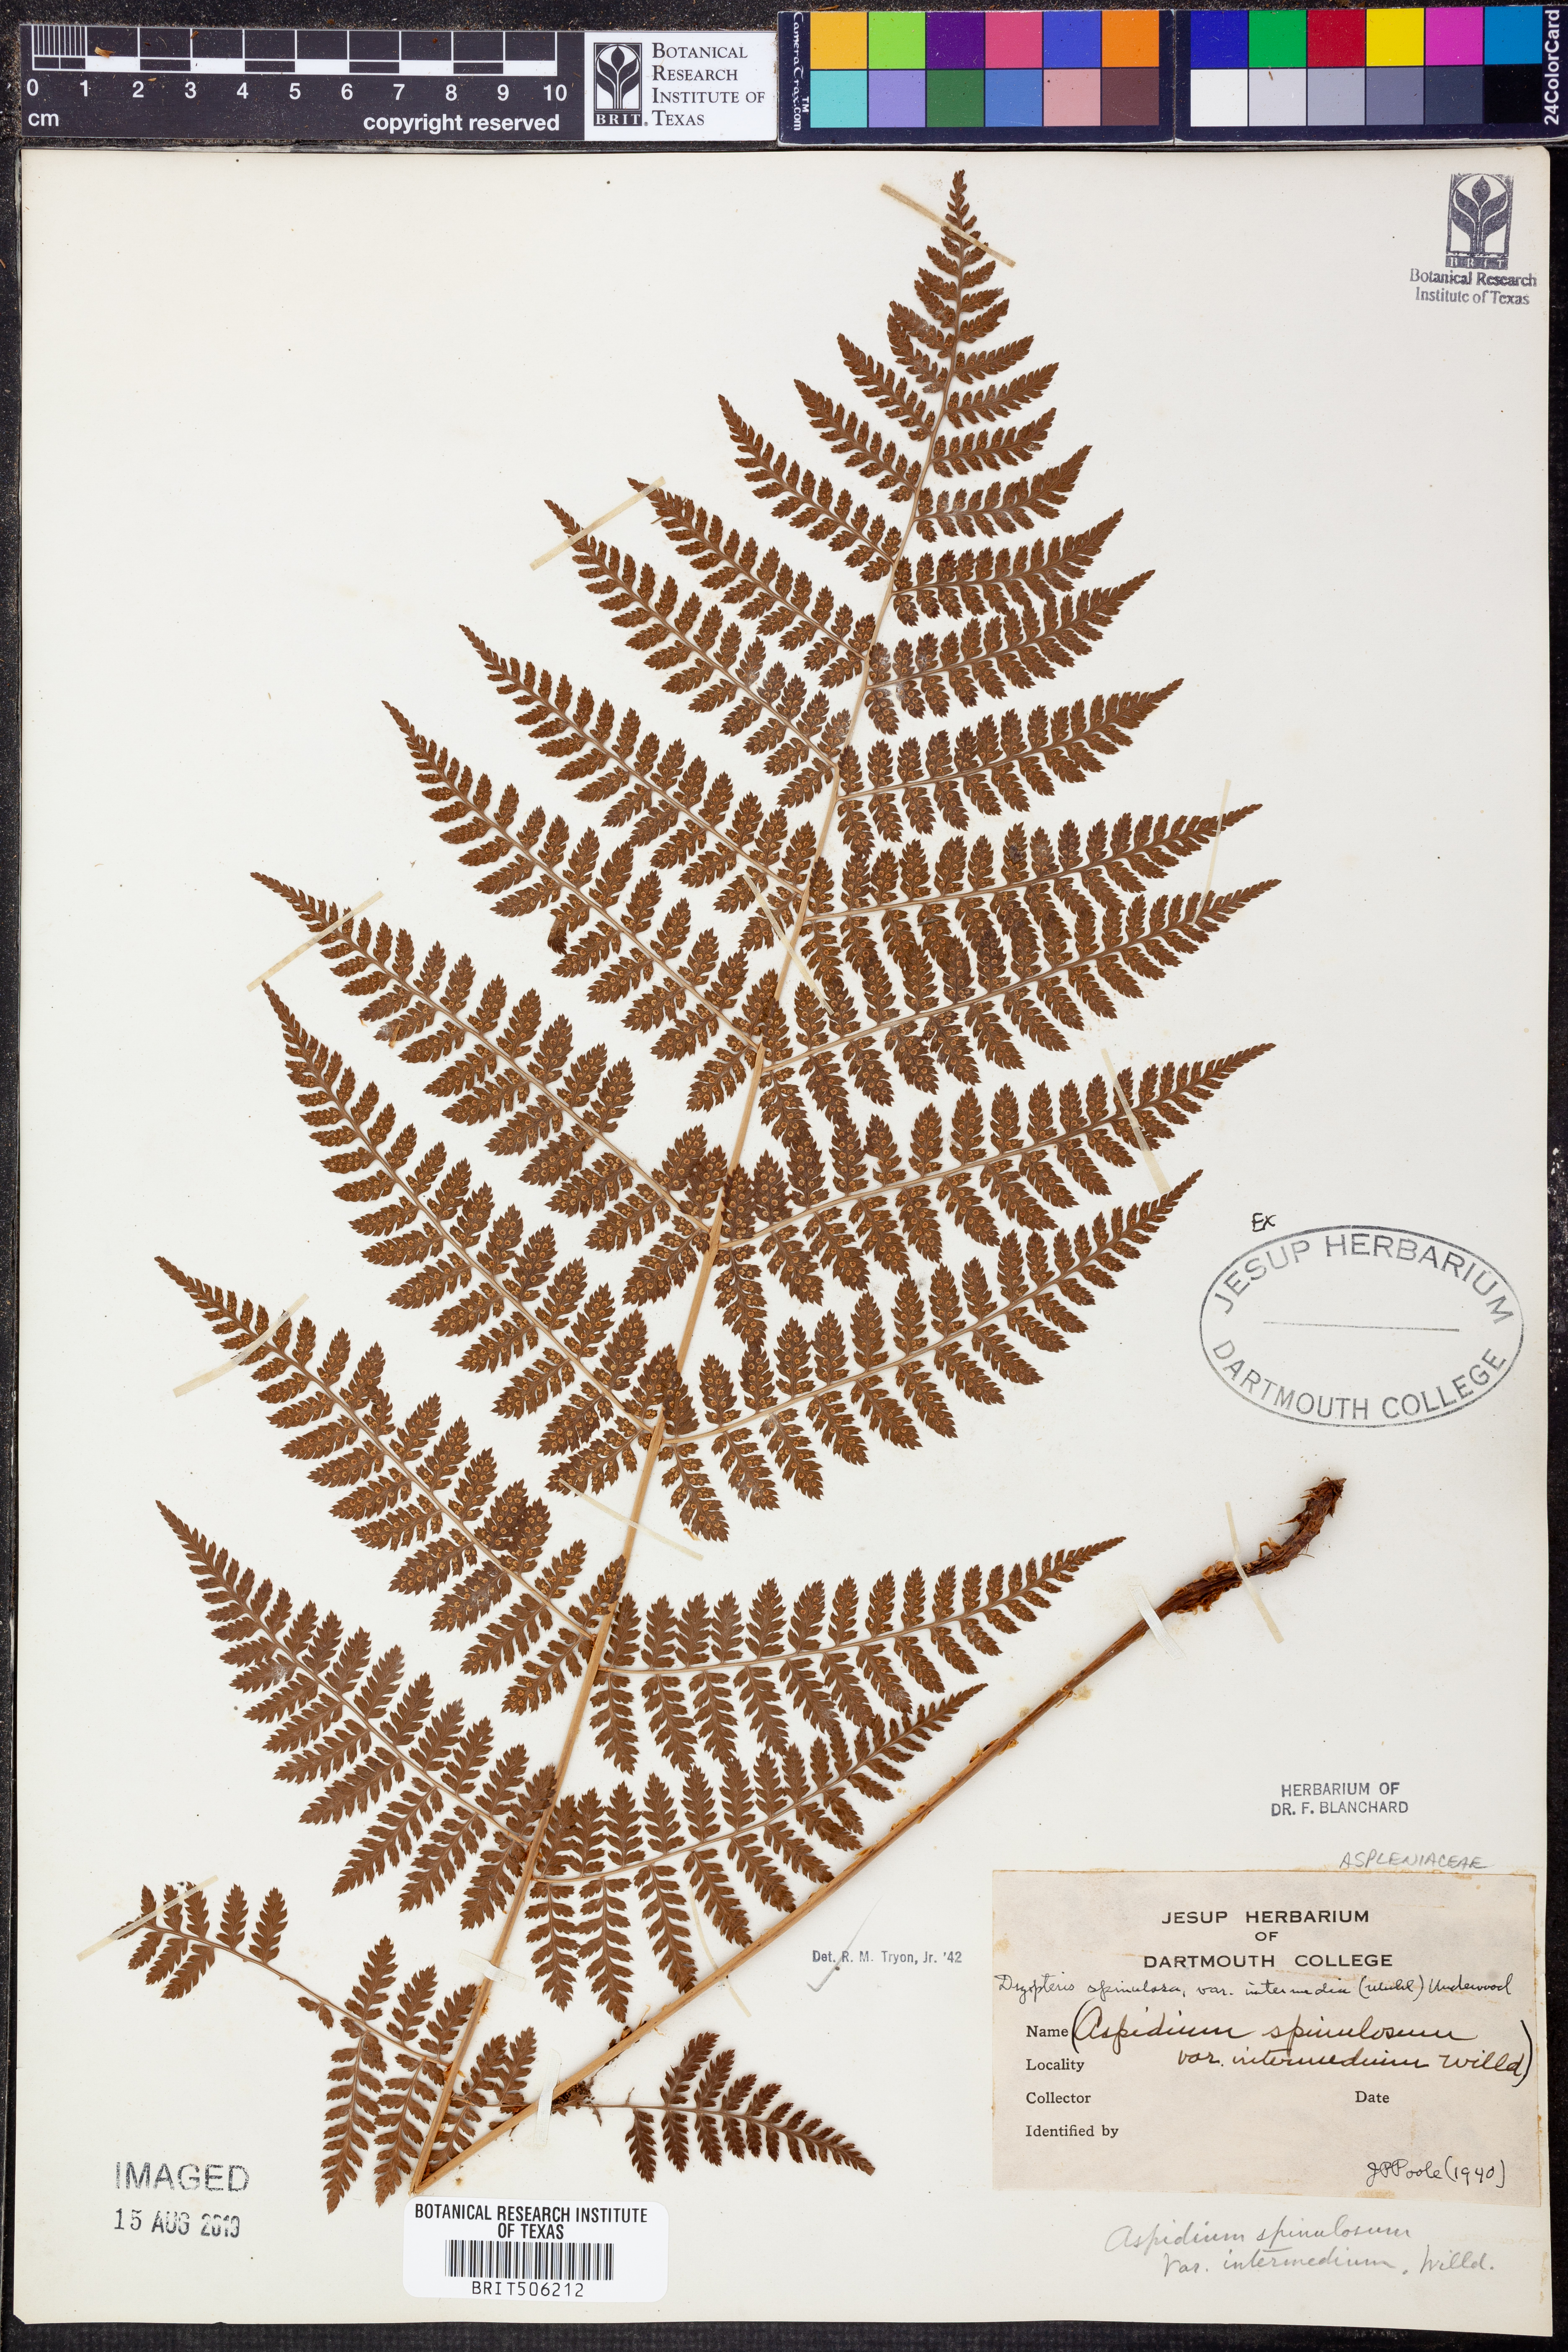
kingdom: Plantae
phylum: Tracheophyta
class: Polypodiopsida
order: Polypodiales
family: Dryopteridaceae
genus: Dryopteris
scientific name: Dryopteris intermedia
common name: Evergreen wood fern
